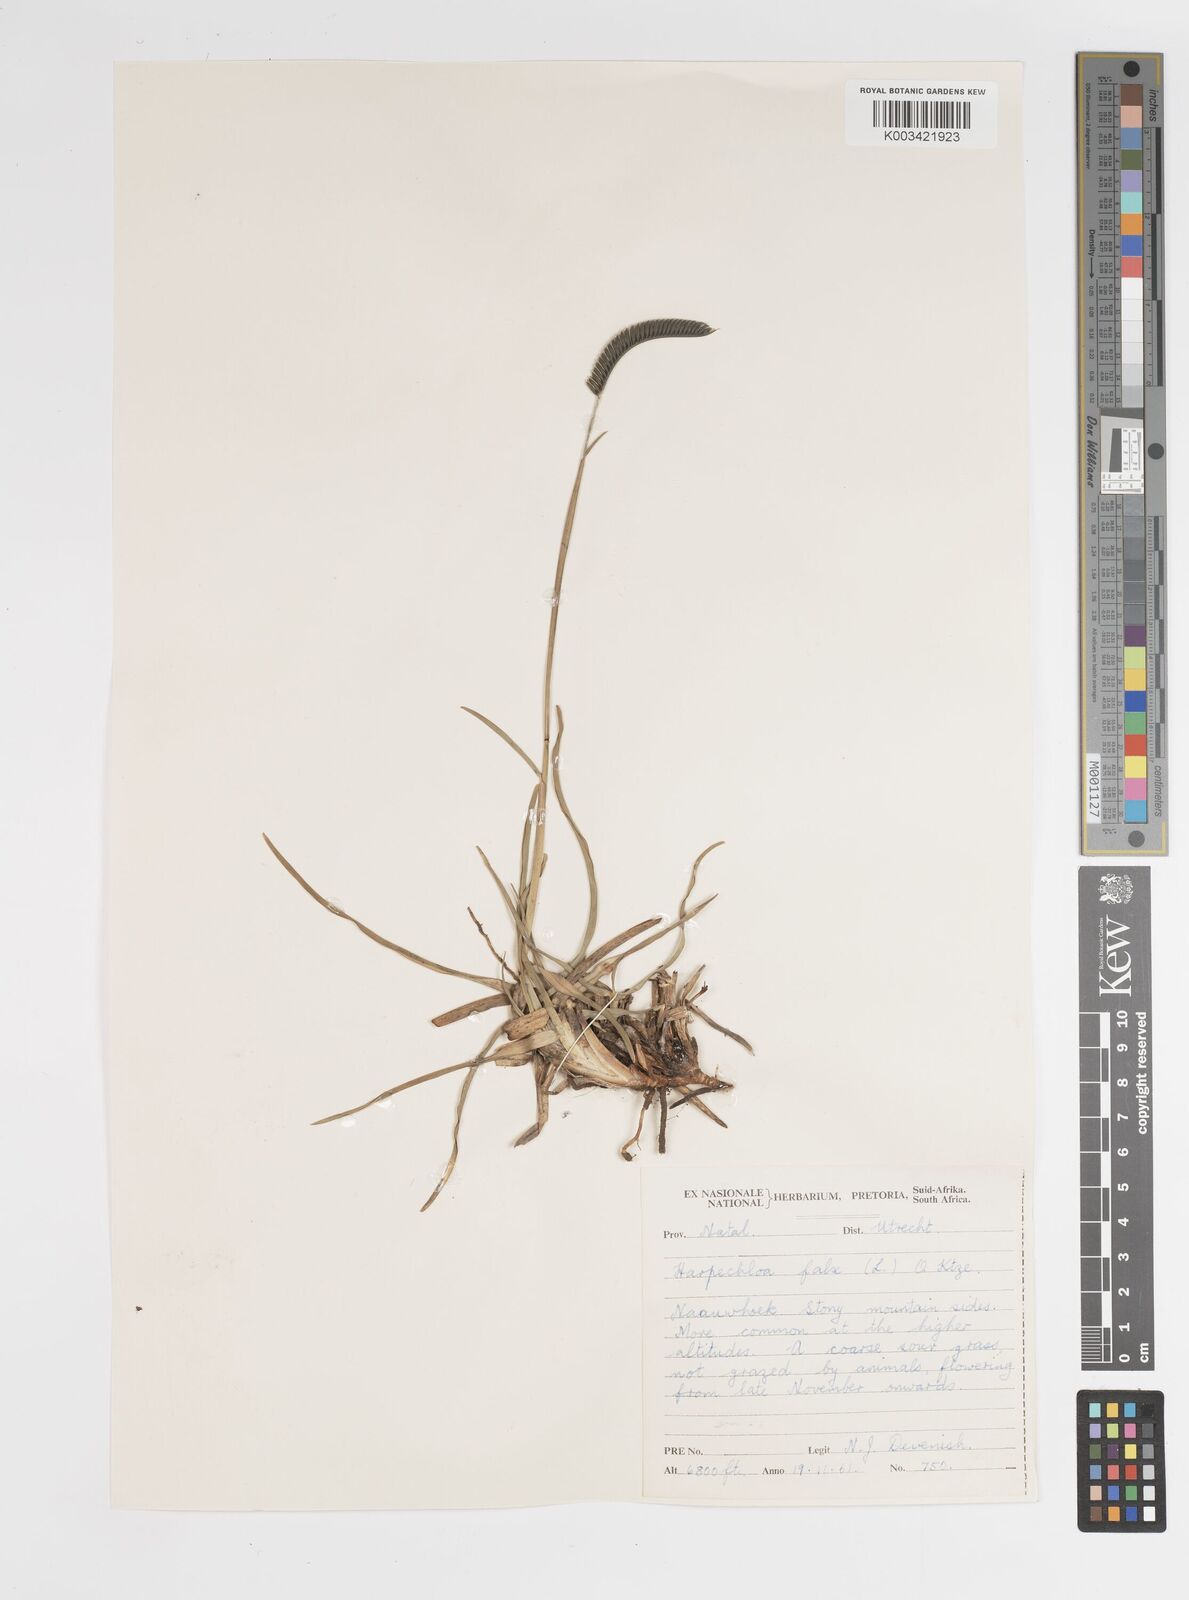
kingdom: Plantae
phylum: Tracheophyta
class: Liliopsida
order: Poales
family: Poaceae
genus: Harpochloa
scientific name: Harpochloa falx
